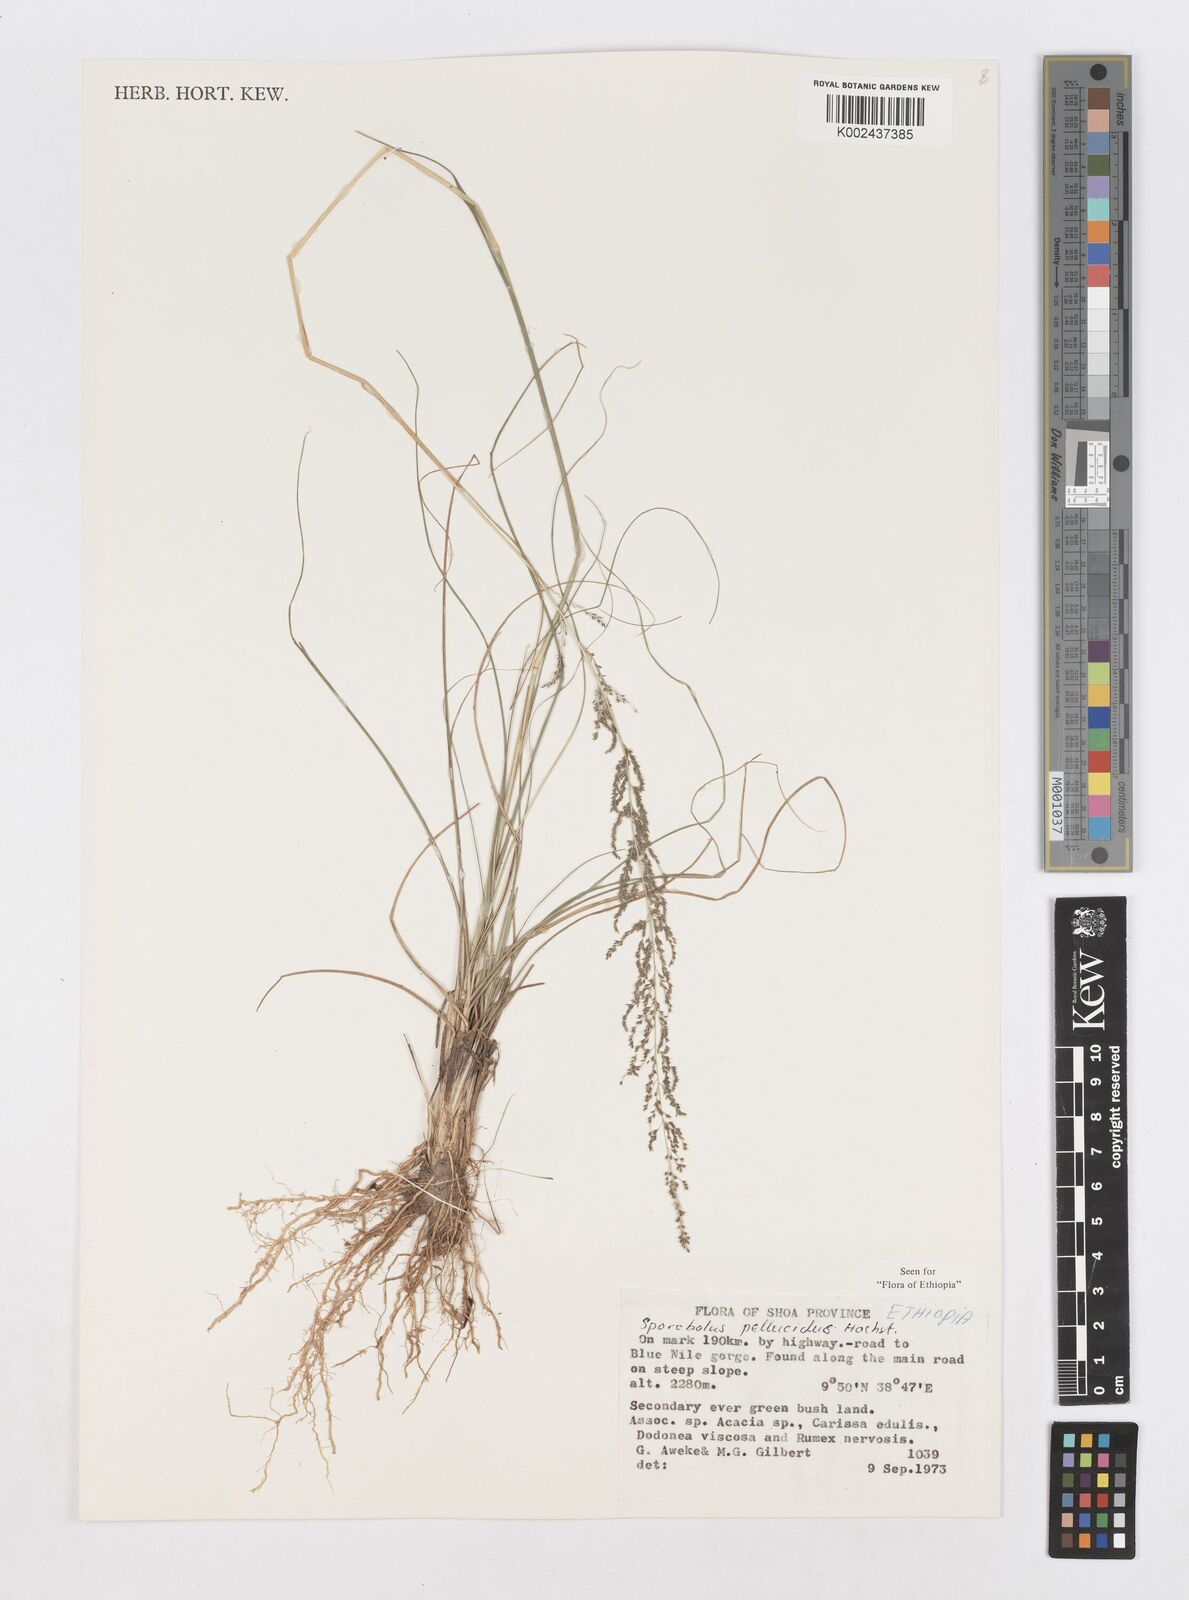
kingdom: Plantae
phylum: Tracheophyta
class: Liliopsida
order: Poales
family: Poaceae
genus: Sporobolus
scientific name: Sporobolus pellucidus
